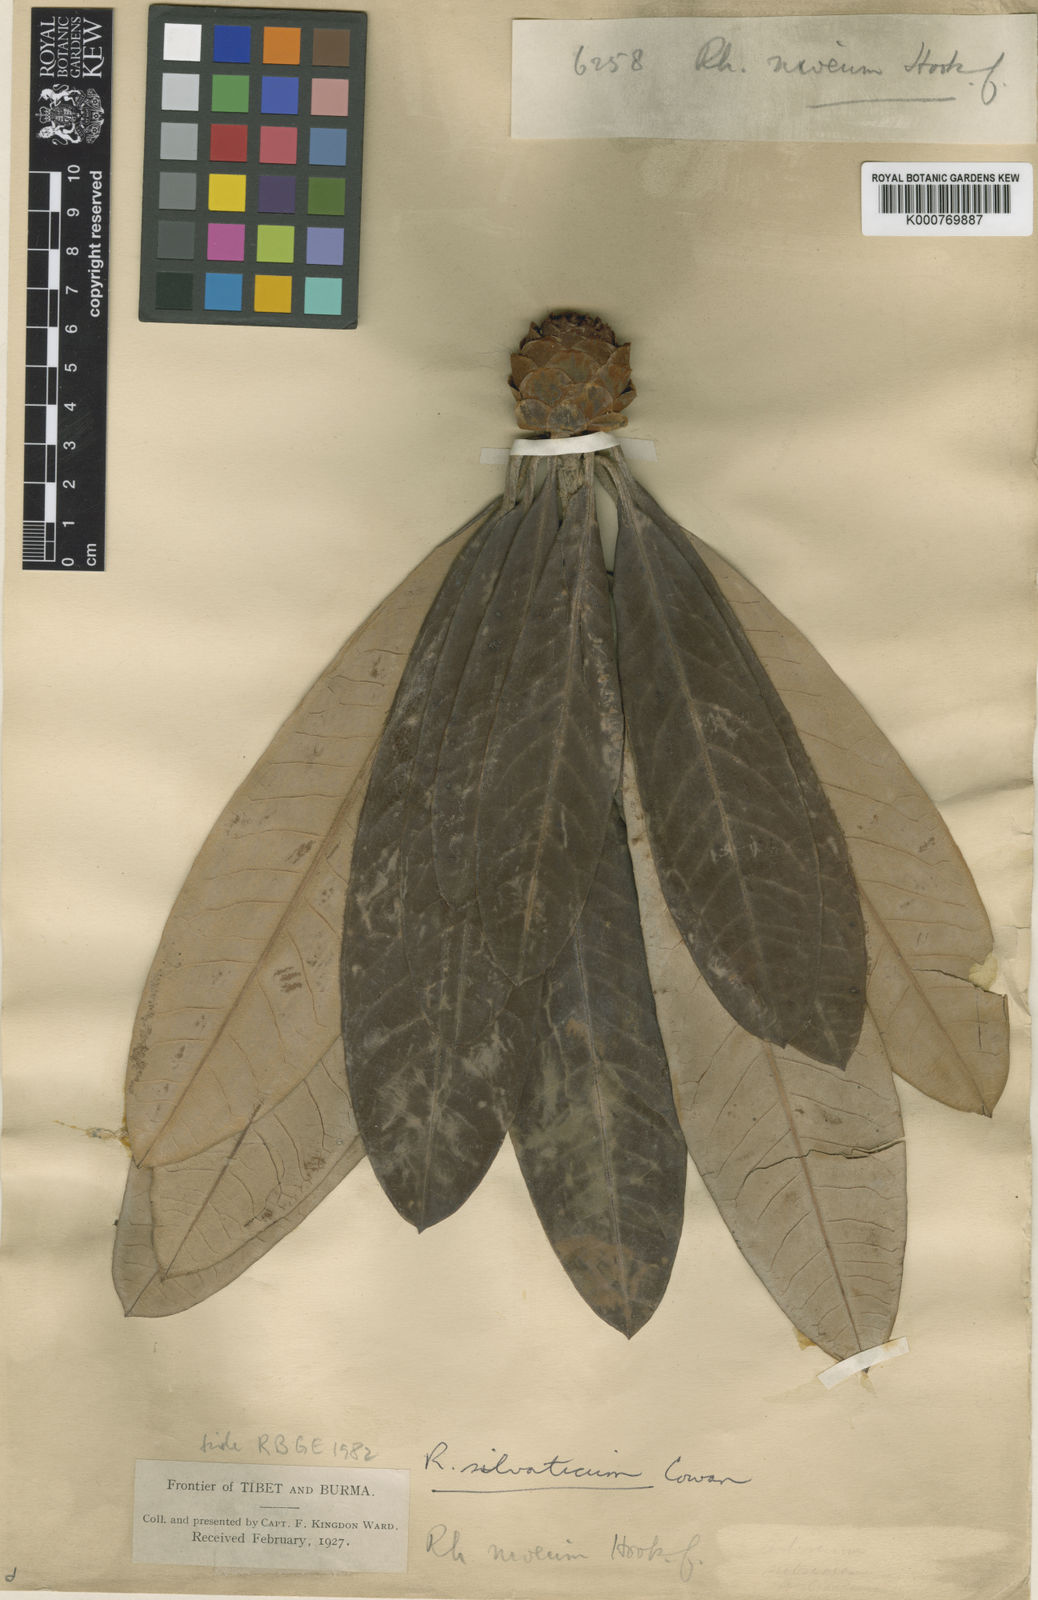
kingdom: Plantae
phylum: Tracheophyta
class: Magnoliopsida
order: Ericales
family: Ericaceae
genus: Rhododendron
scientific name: Rhododendron
